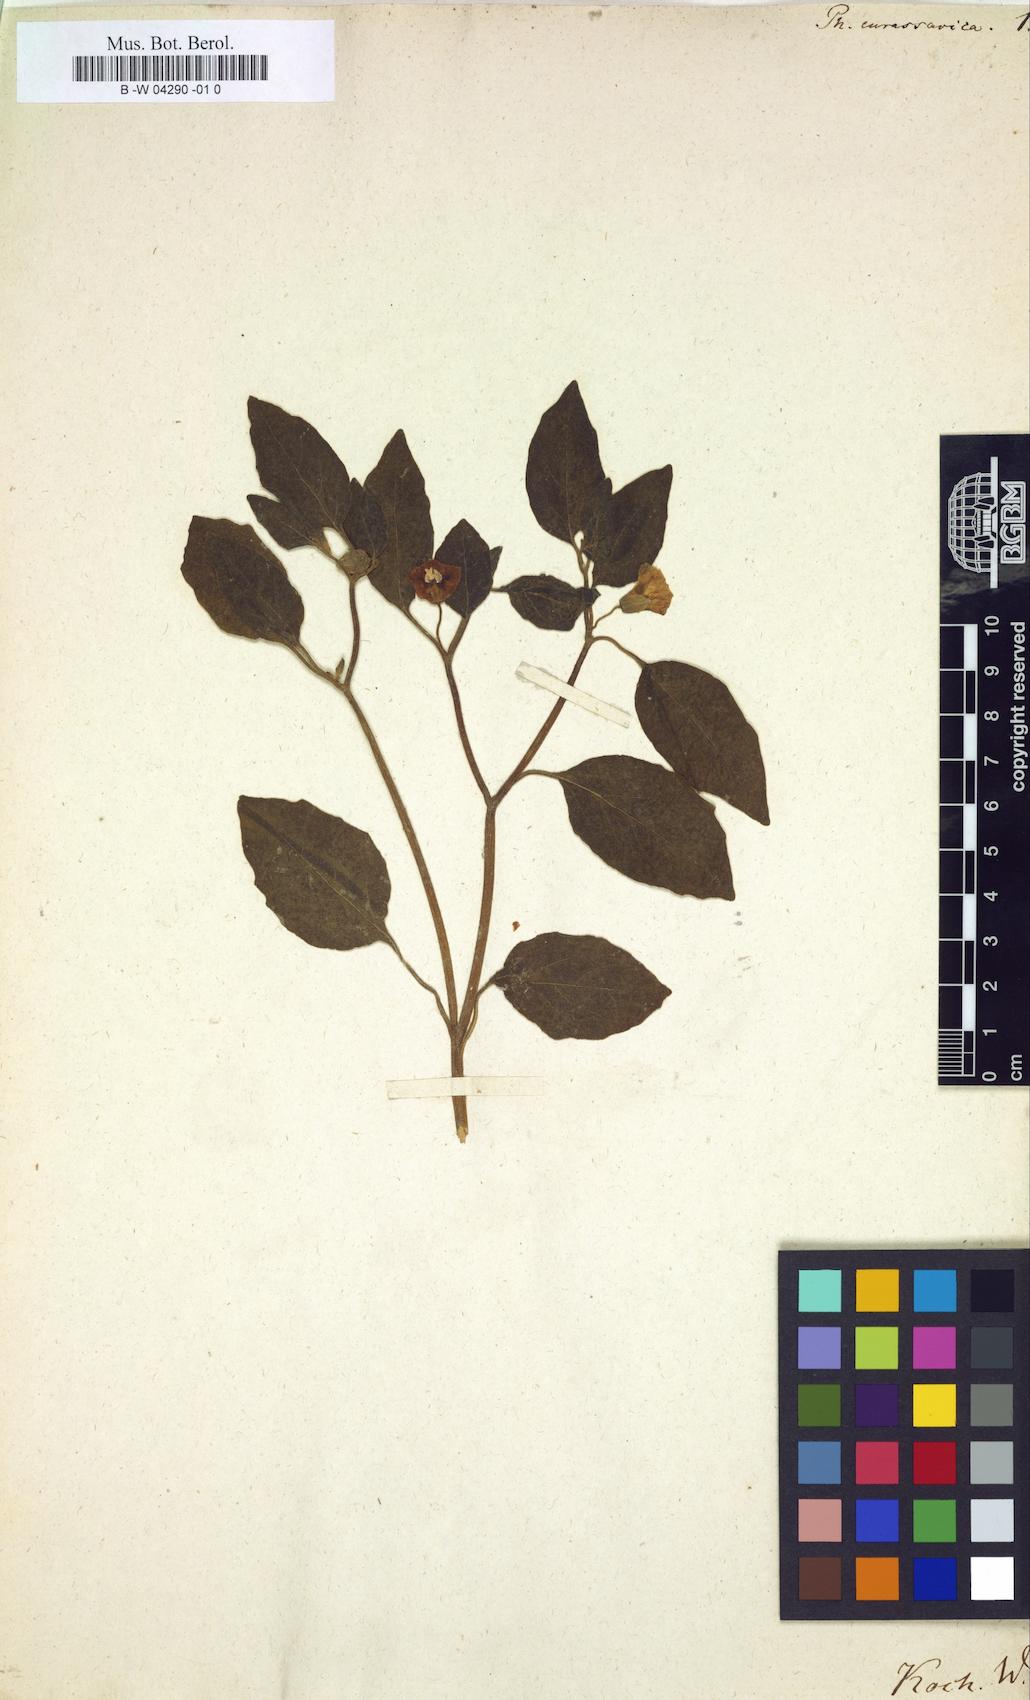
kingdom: Plantae
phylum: Tracheophyta
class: Magnoliopsida
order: Solanales
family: Solanaceae
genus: Physalis
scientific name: Physalis viscosa
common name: Stellate ground-cherry
